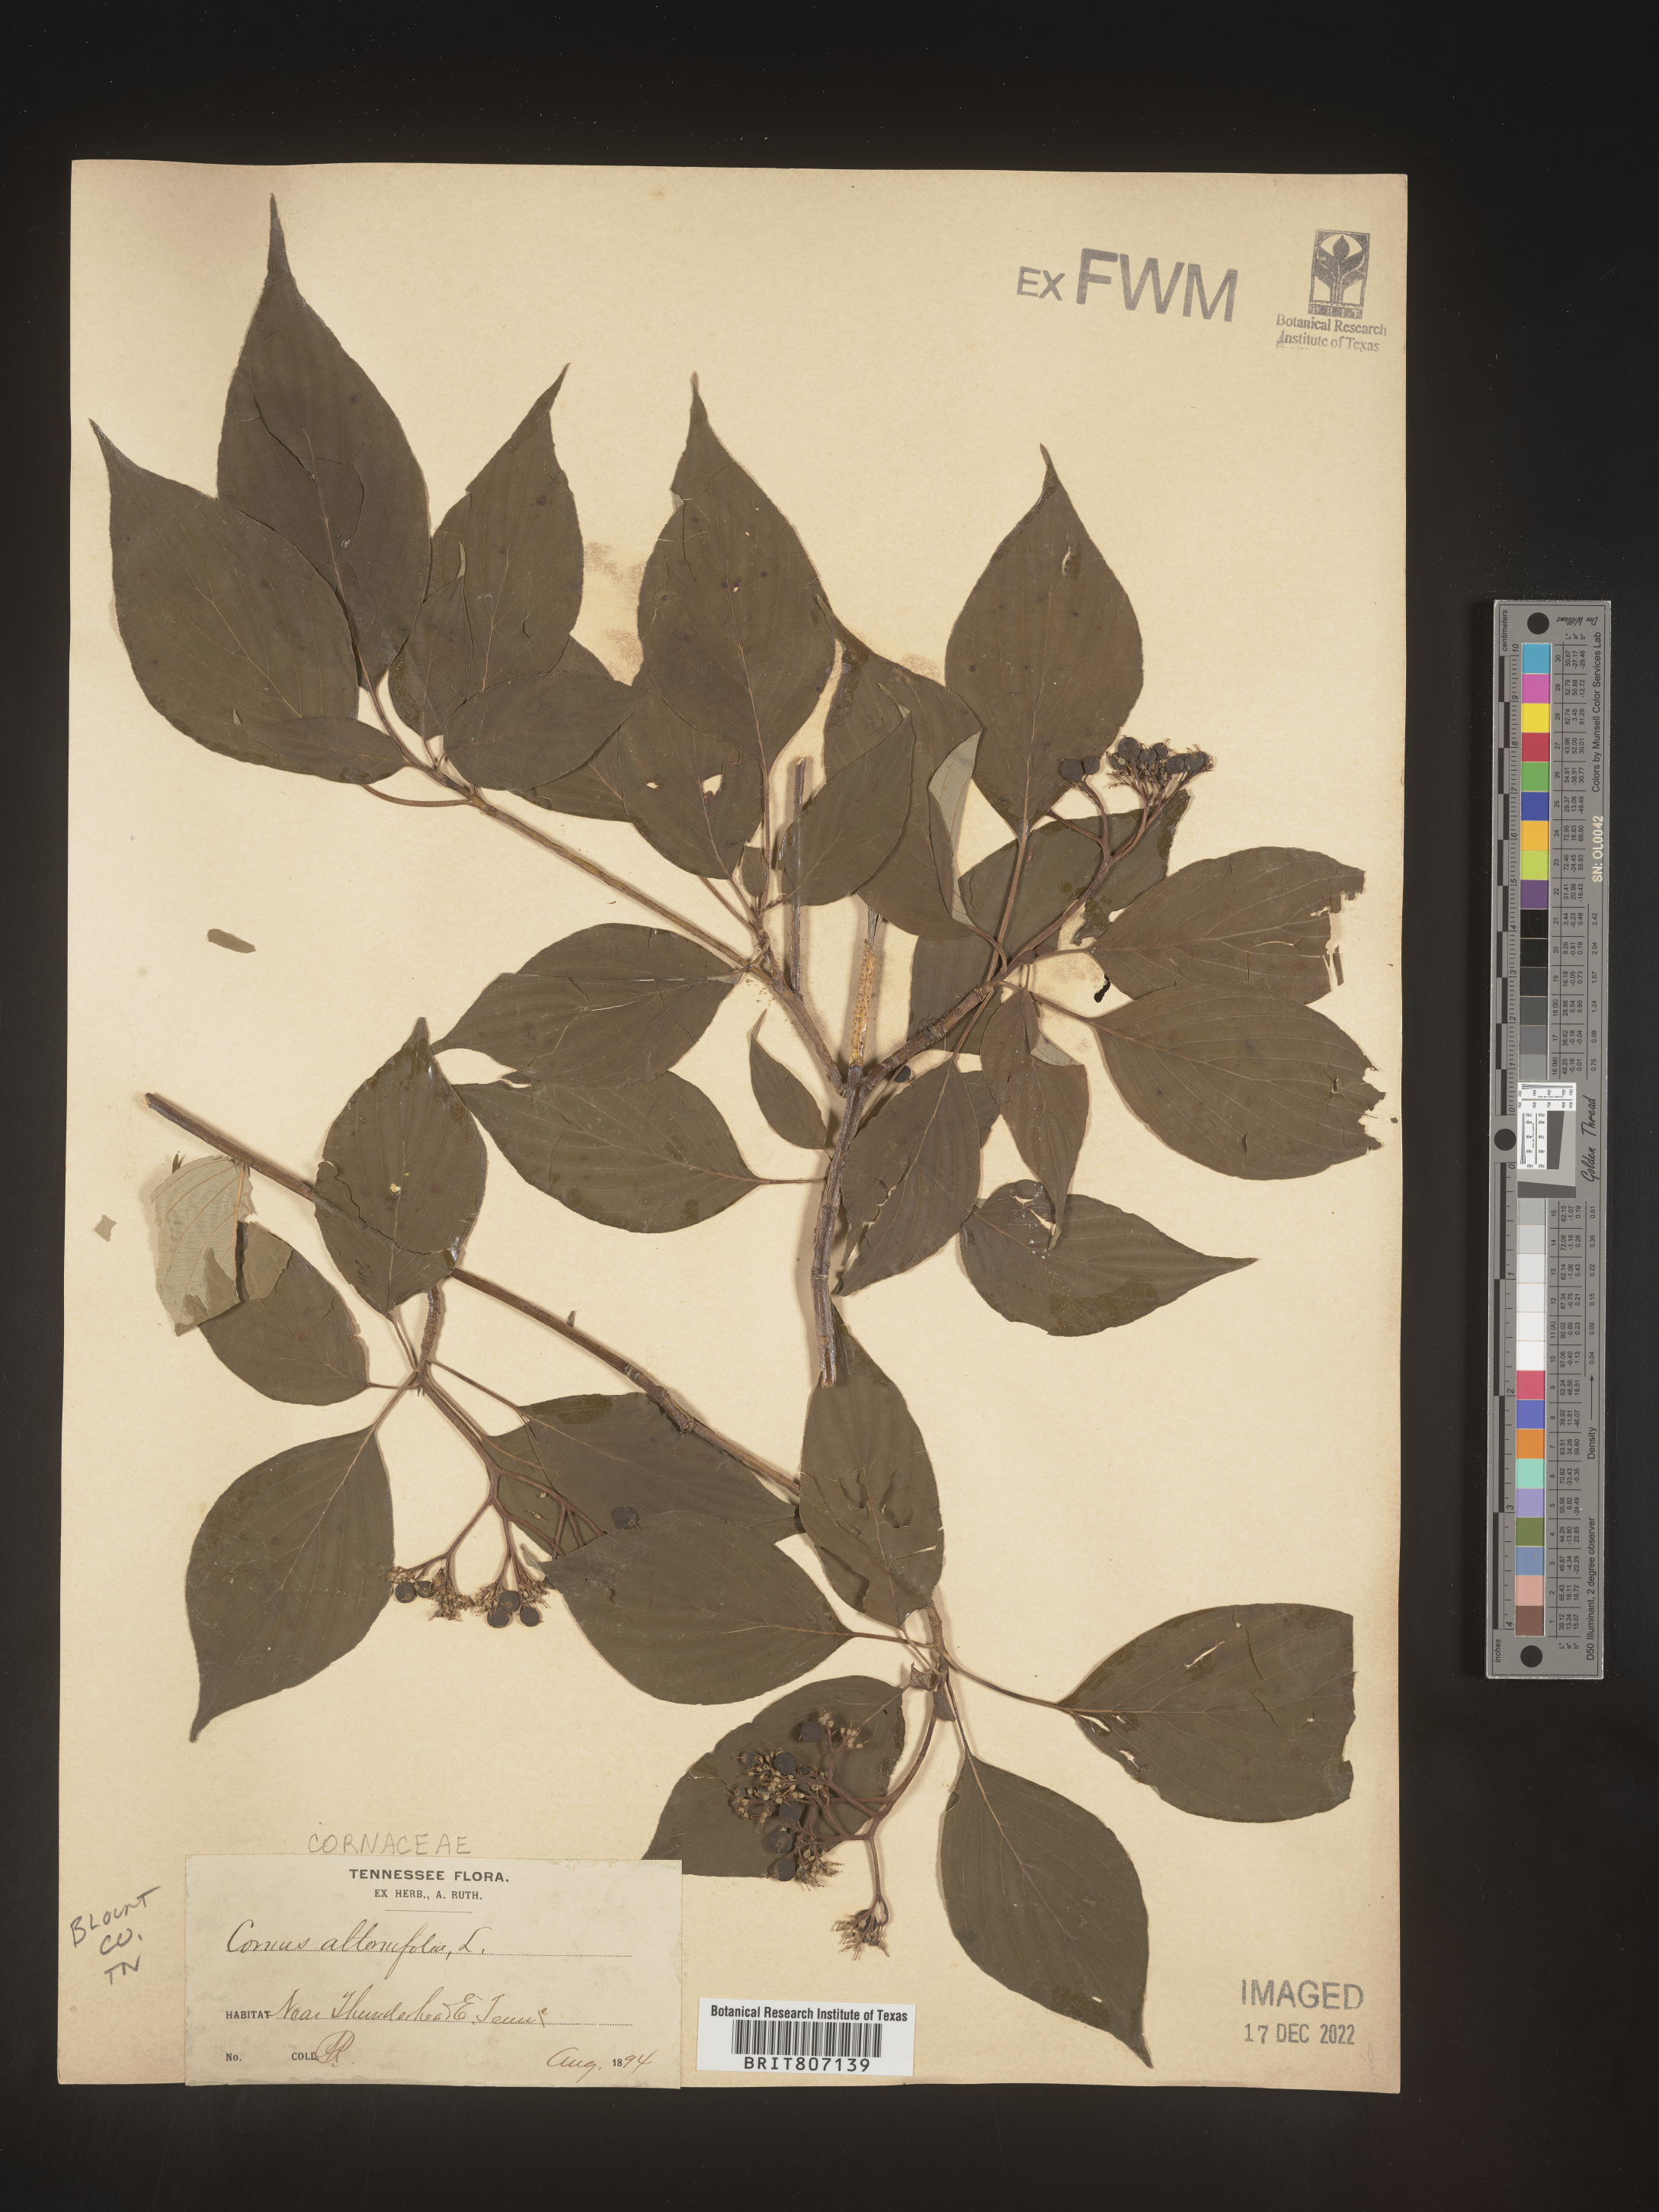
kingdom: Plantae
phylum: Tracheophyta
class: Magnoliopsida
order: Cornales
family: Cornaceae
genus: Cornus
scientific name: Cornus alternifolia
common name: Pagoda dogwood
